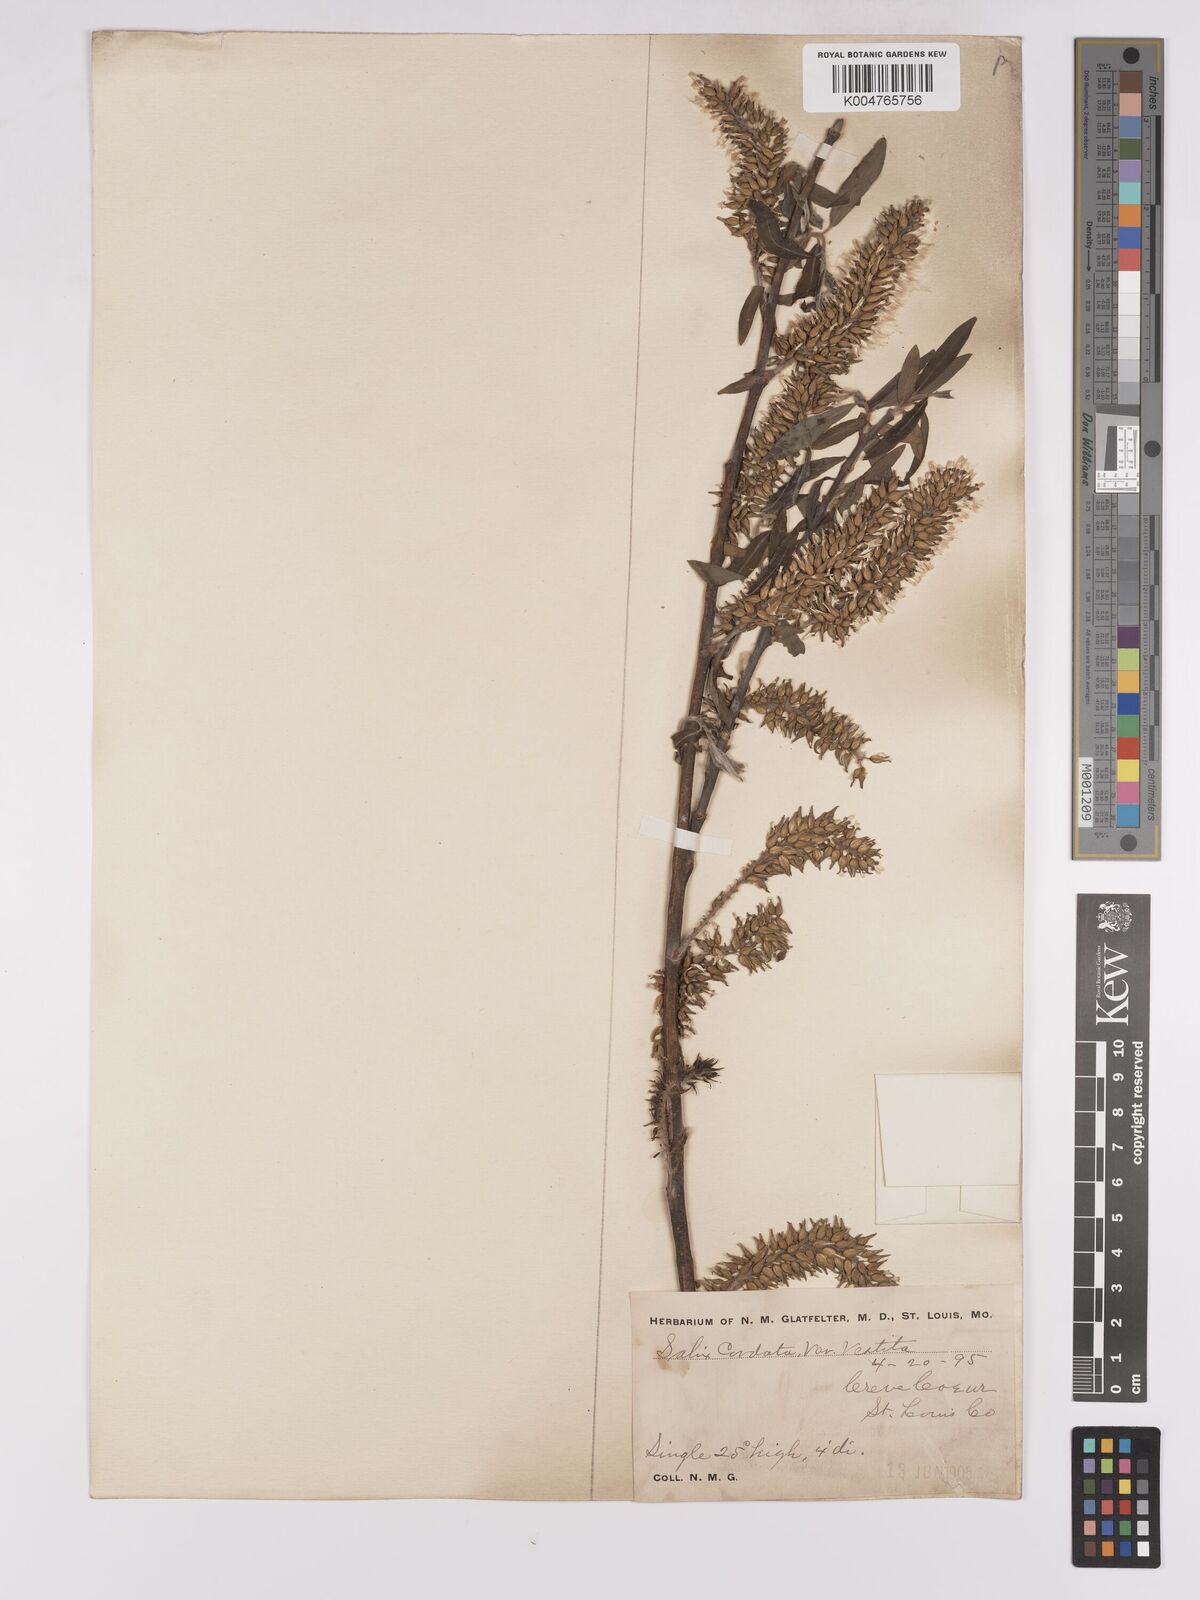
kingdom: Plantae
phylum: Tracheophyta
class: Magnoliopsida
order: Malpighiales
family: Salicaceae
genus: Salix
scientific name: Salix cordata
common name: Heart-leaf willow
